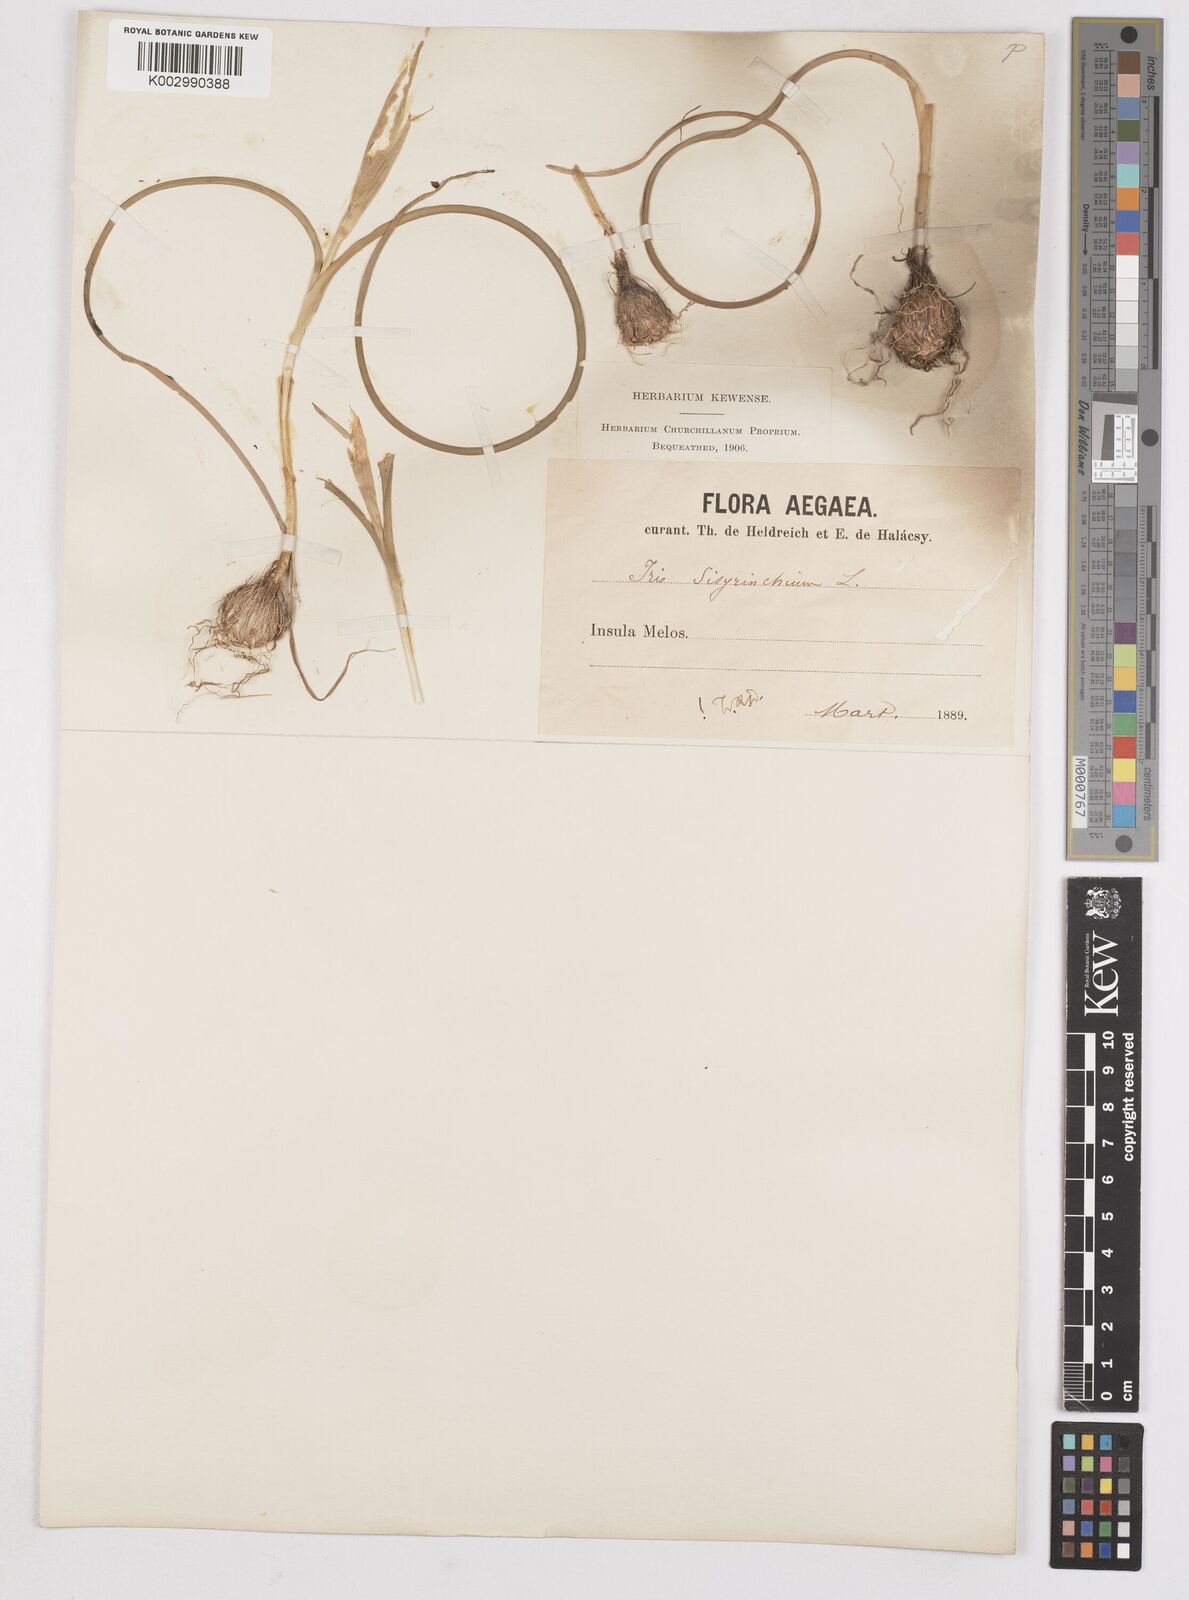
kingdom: Plantae
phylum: Tracheophyta
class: Liliopsida
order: Asparagales
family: Iridaceae
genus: Moraea
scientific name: Moraea sisyrinchium
